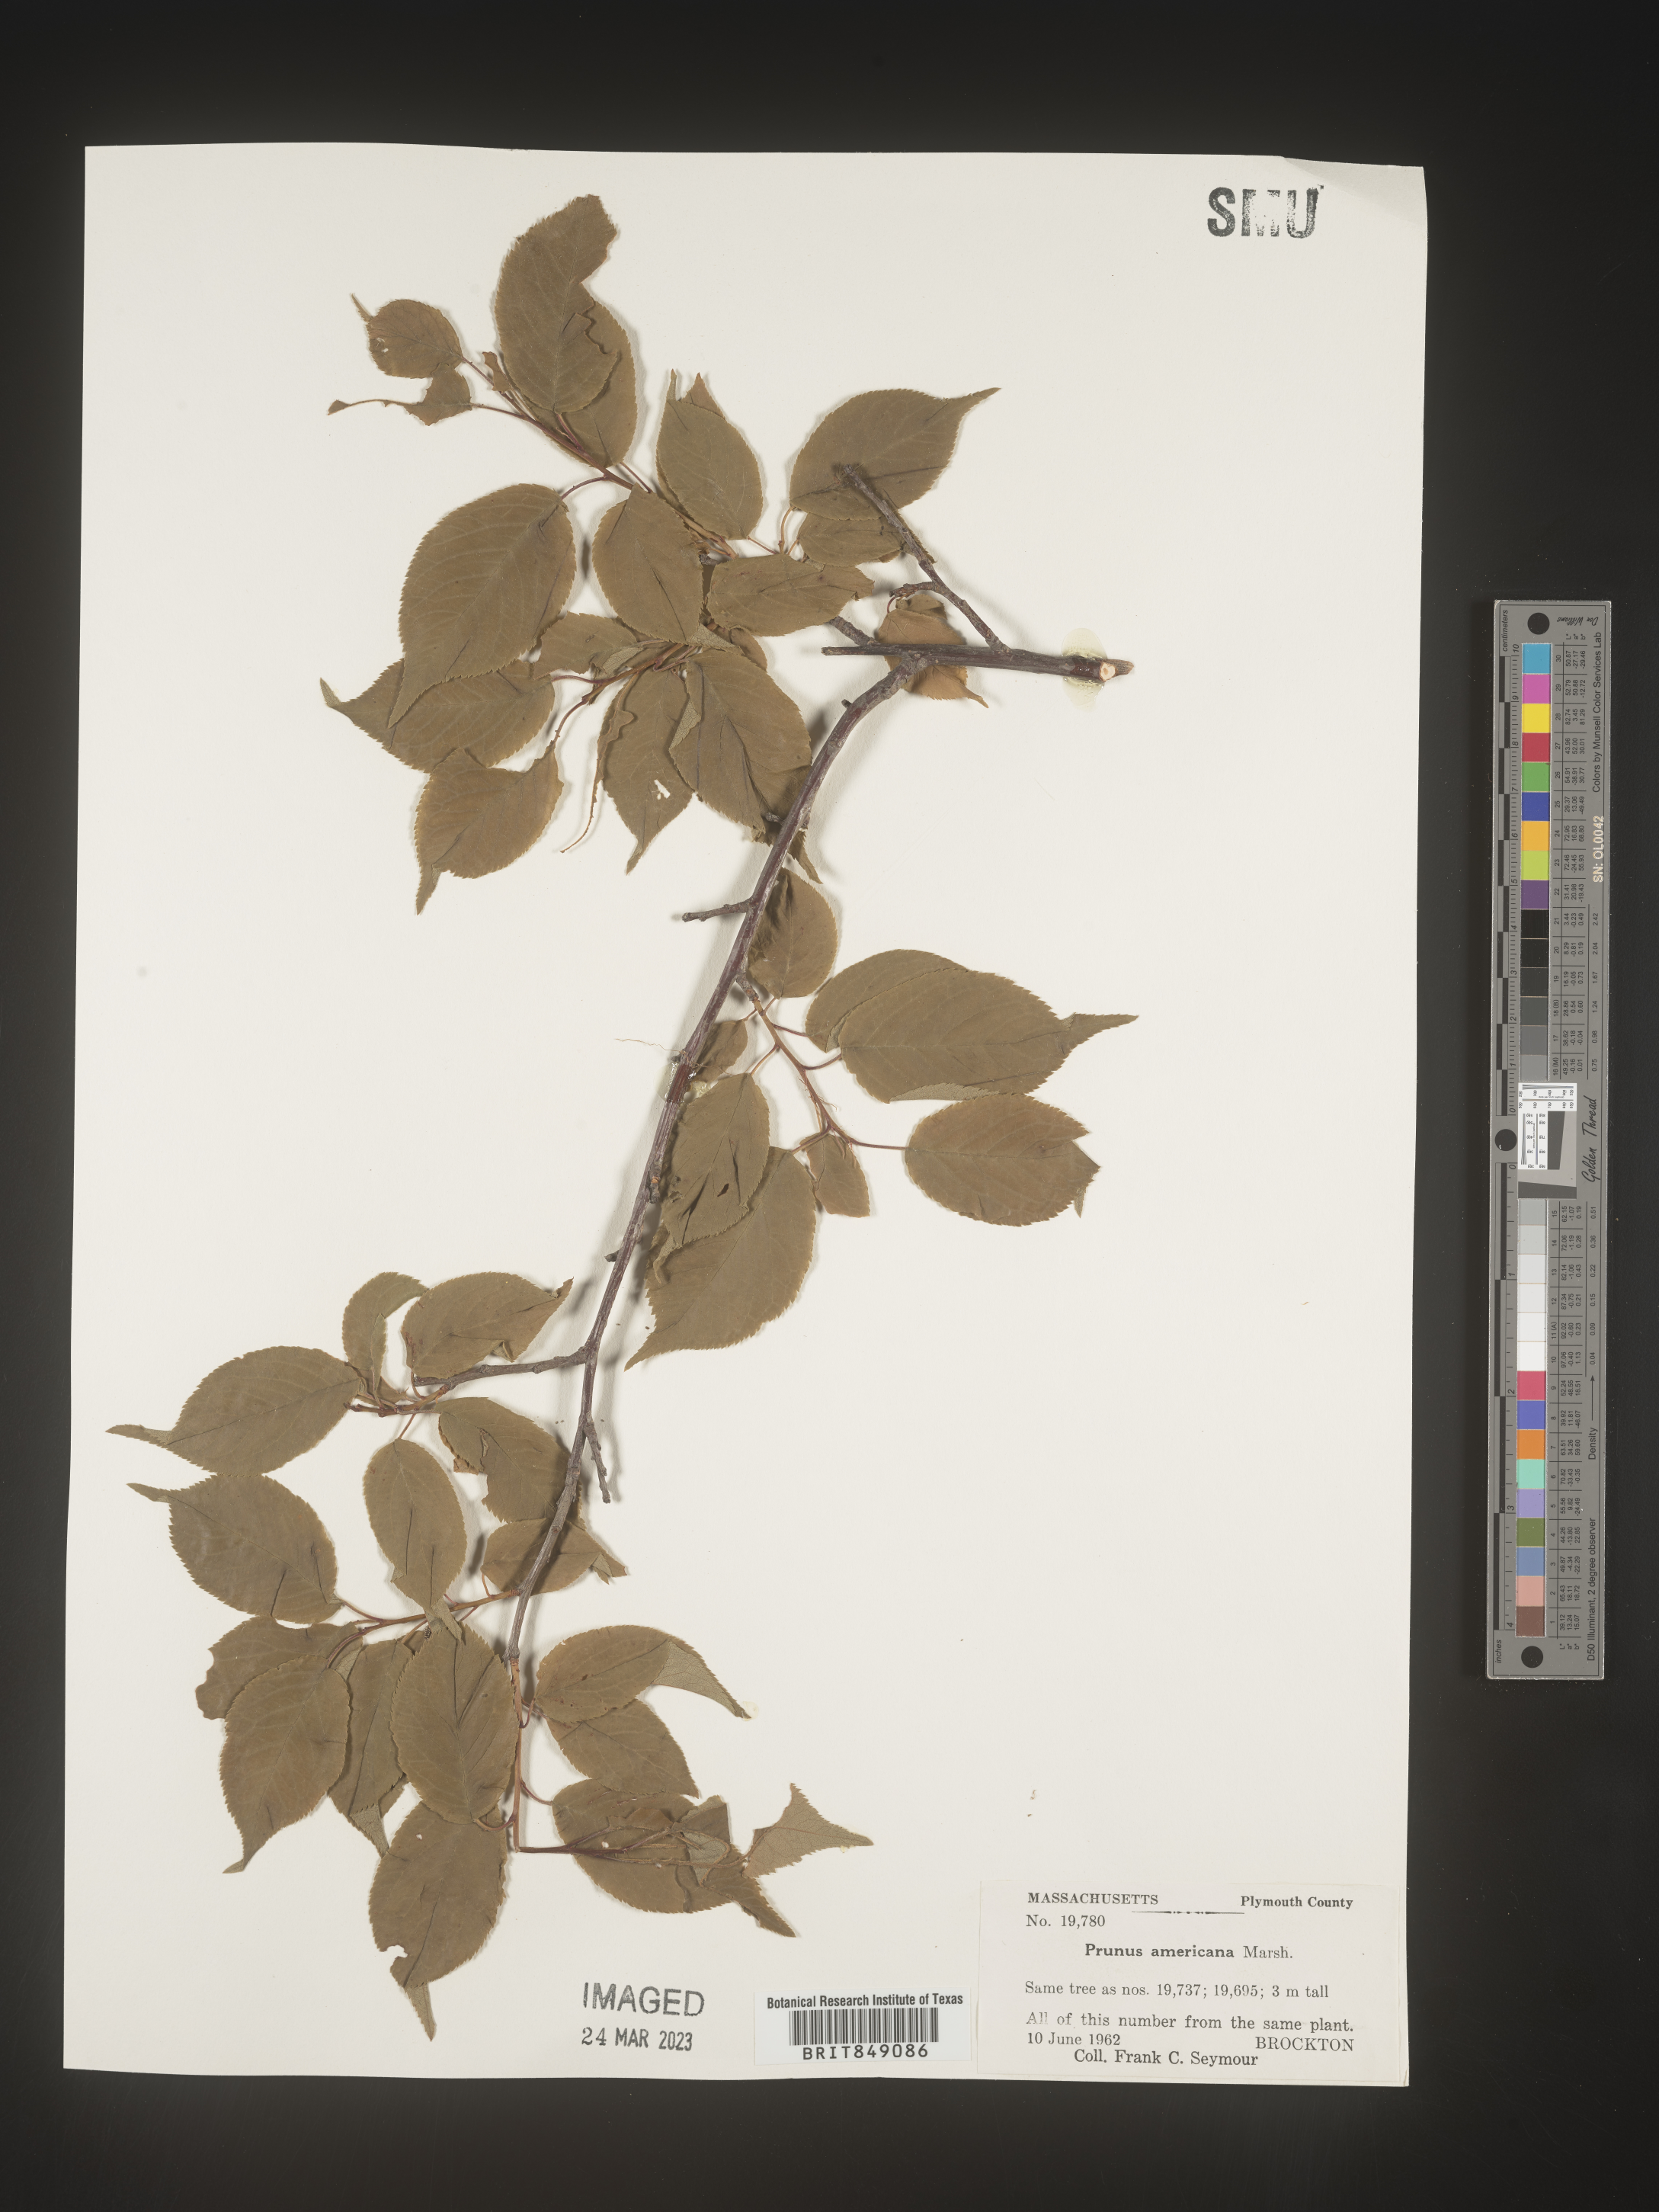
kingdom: Plantae
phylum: Tracheophyta
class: Magnoliopsida
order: Rosales
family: Rosaceae
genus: Prunus
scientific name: Prunus americana
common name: American plum
